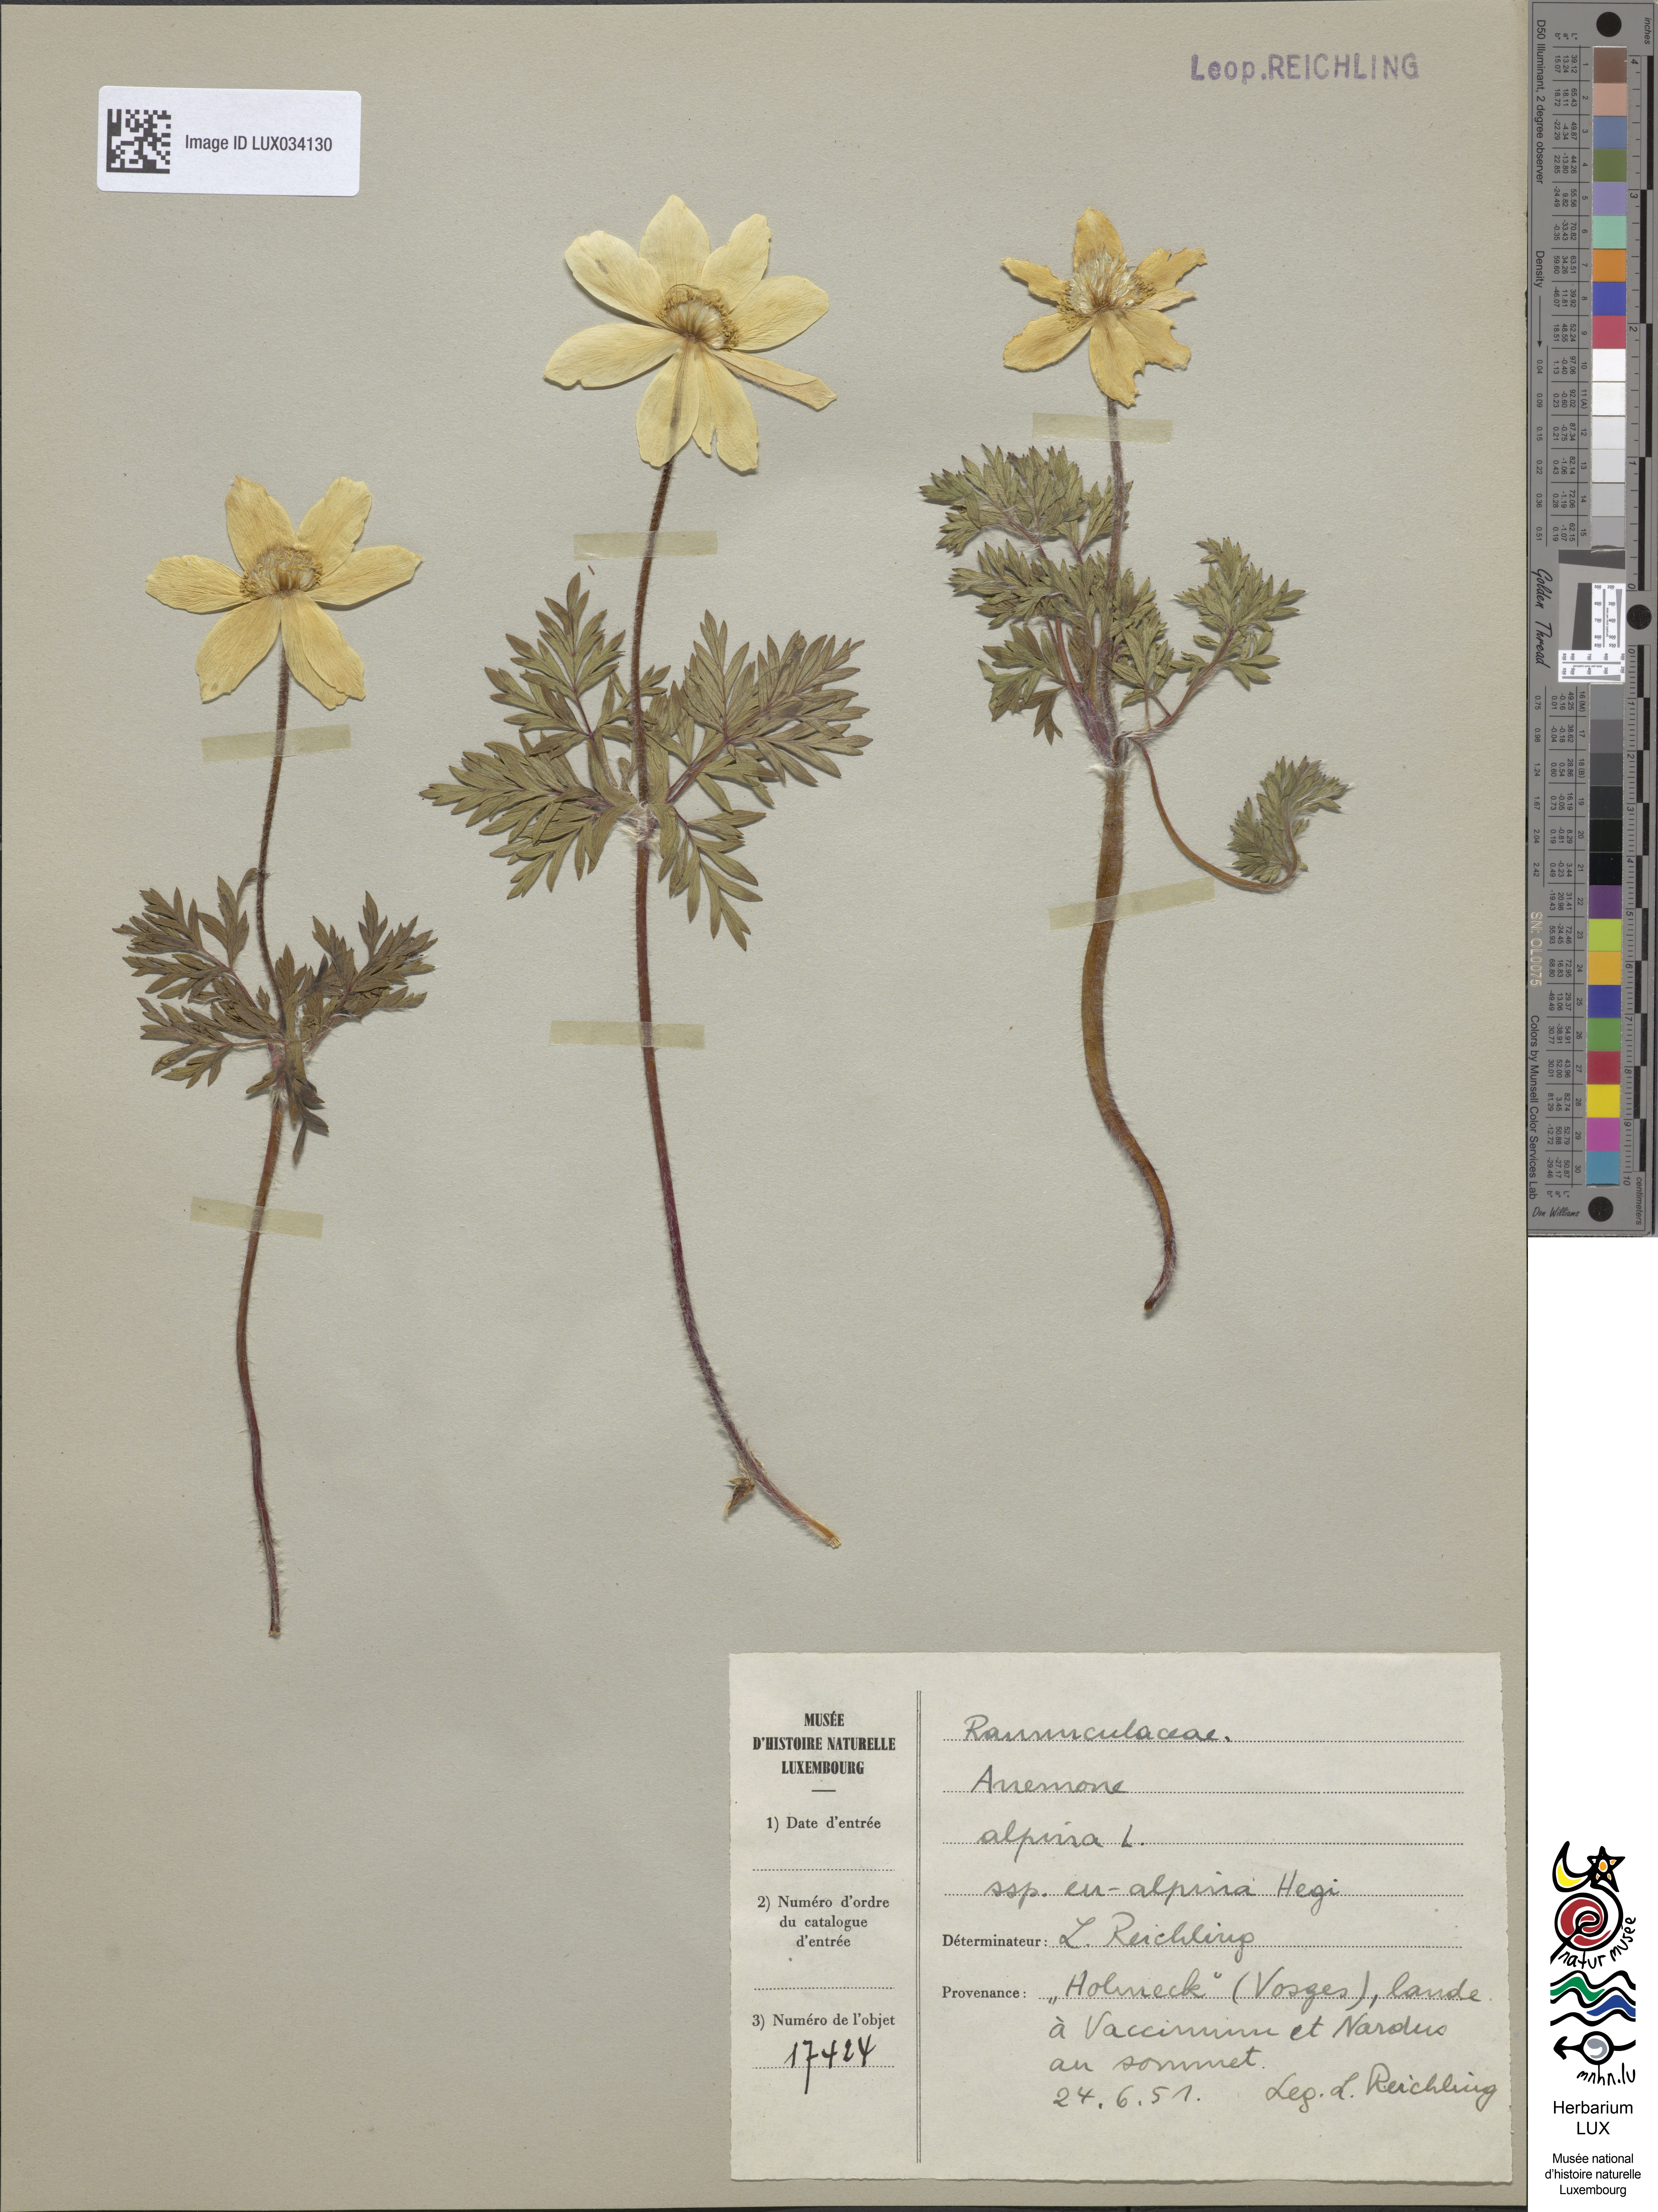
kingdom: Plantae
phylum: Tracheophyta
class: Magnoliopsida
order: Ranunculales
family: Ranunculaceae
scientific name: Ranunculaceae
